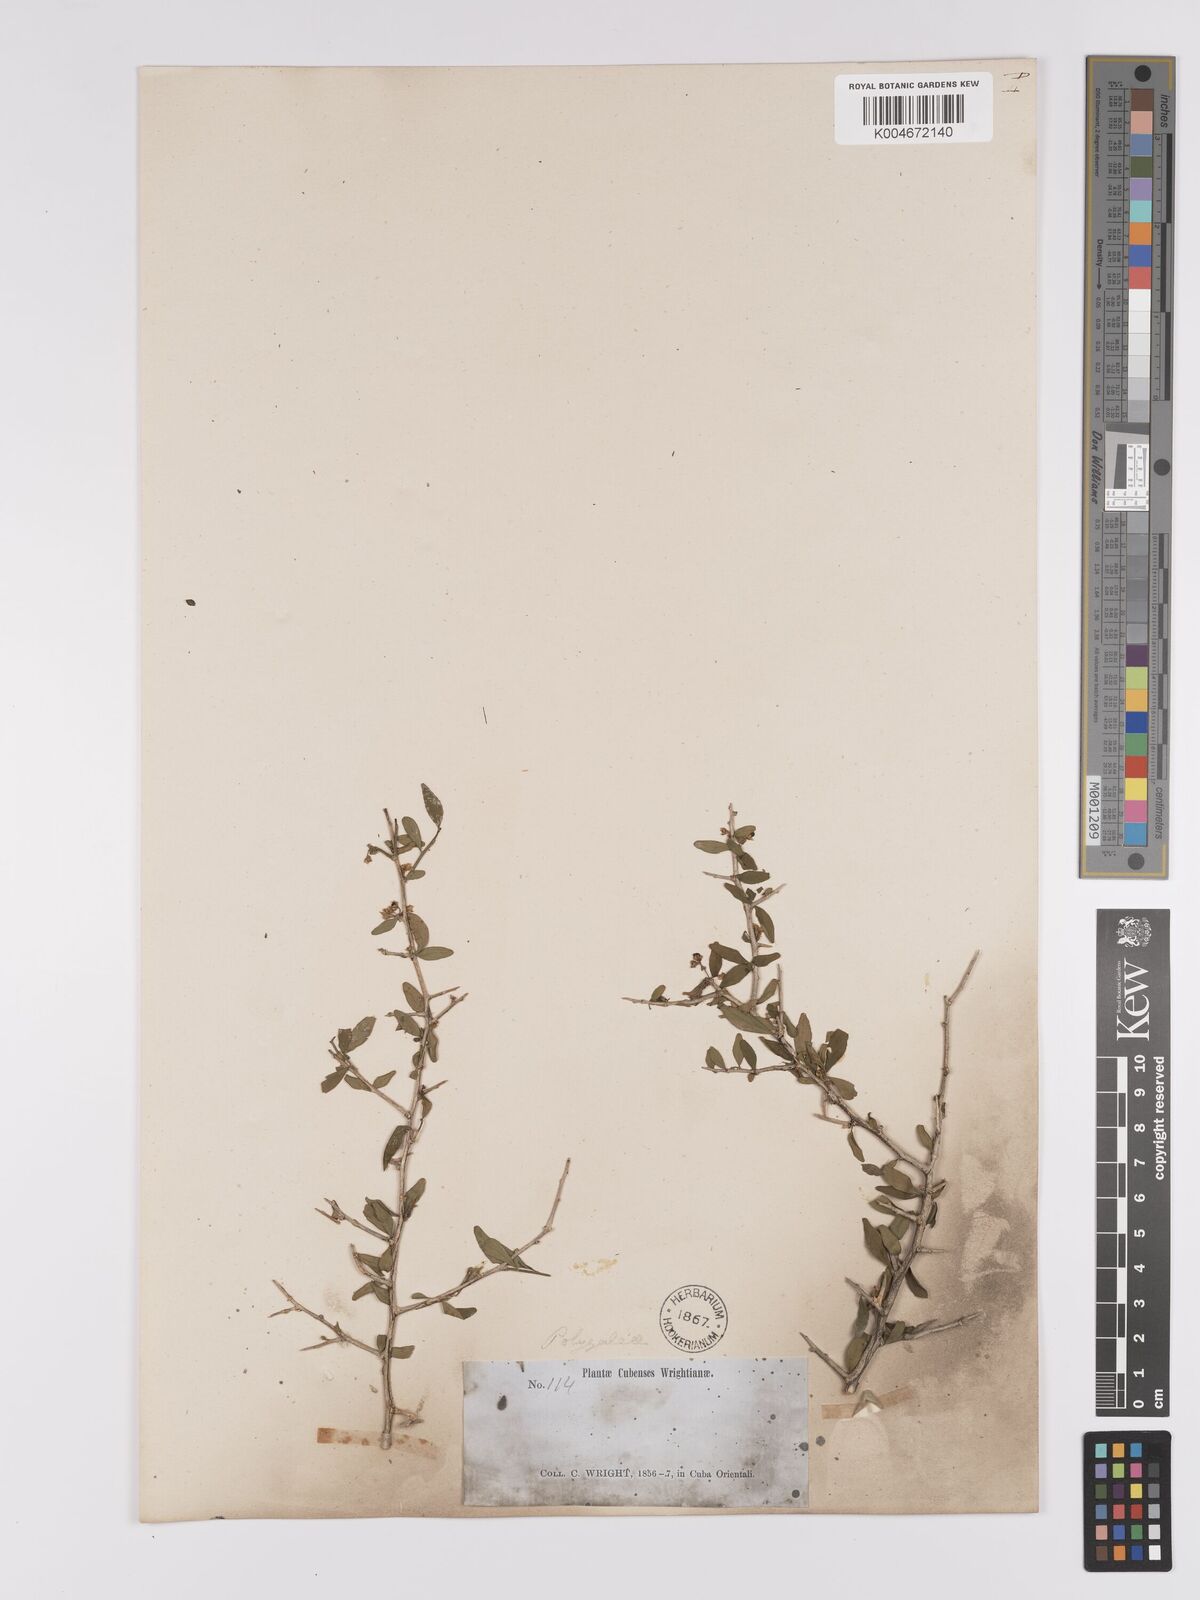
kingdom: Plantae
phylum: Tracheophyta
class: Magnoliopsida
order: Malpighiales
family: Violaceae
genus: Hybanthus
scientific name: Hybanthus havanensis
